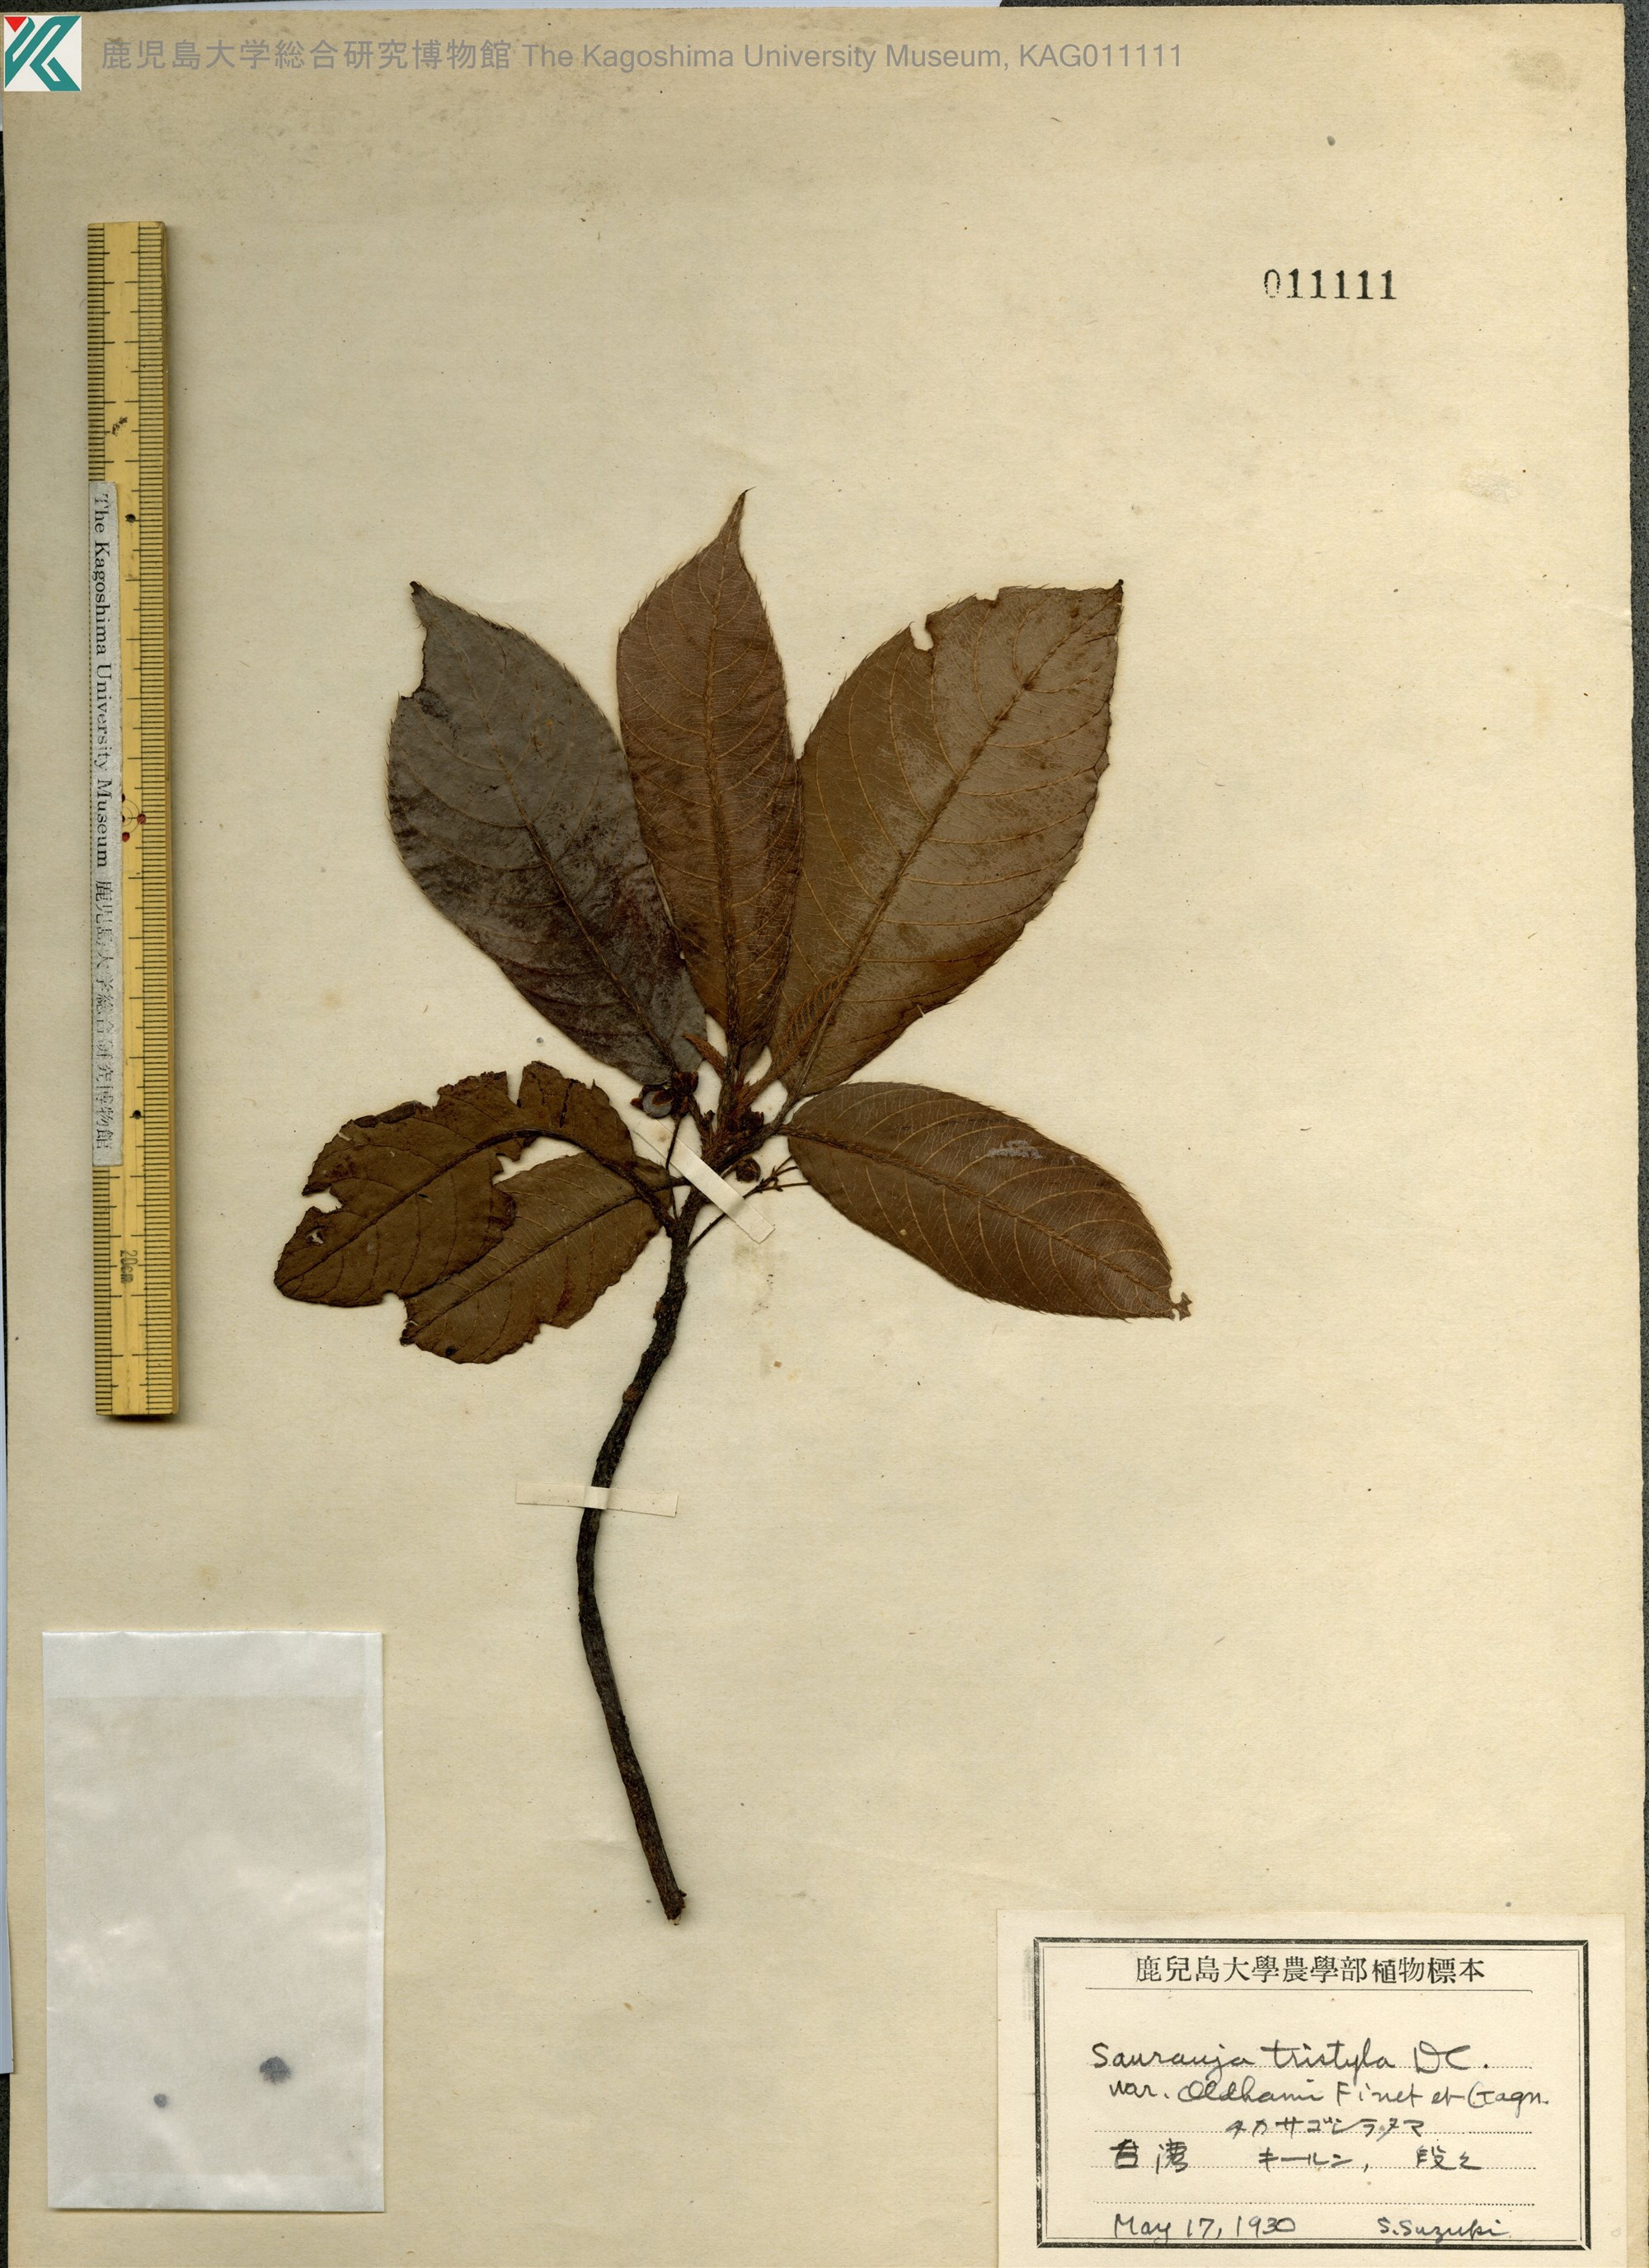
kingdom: Plantae
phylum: Tracheophyta
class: Magnoliopsida
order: Ericales
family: Actinidiaceae
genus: Saurauia
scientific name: Saurauia tristyla
